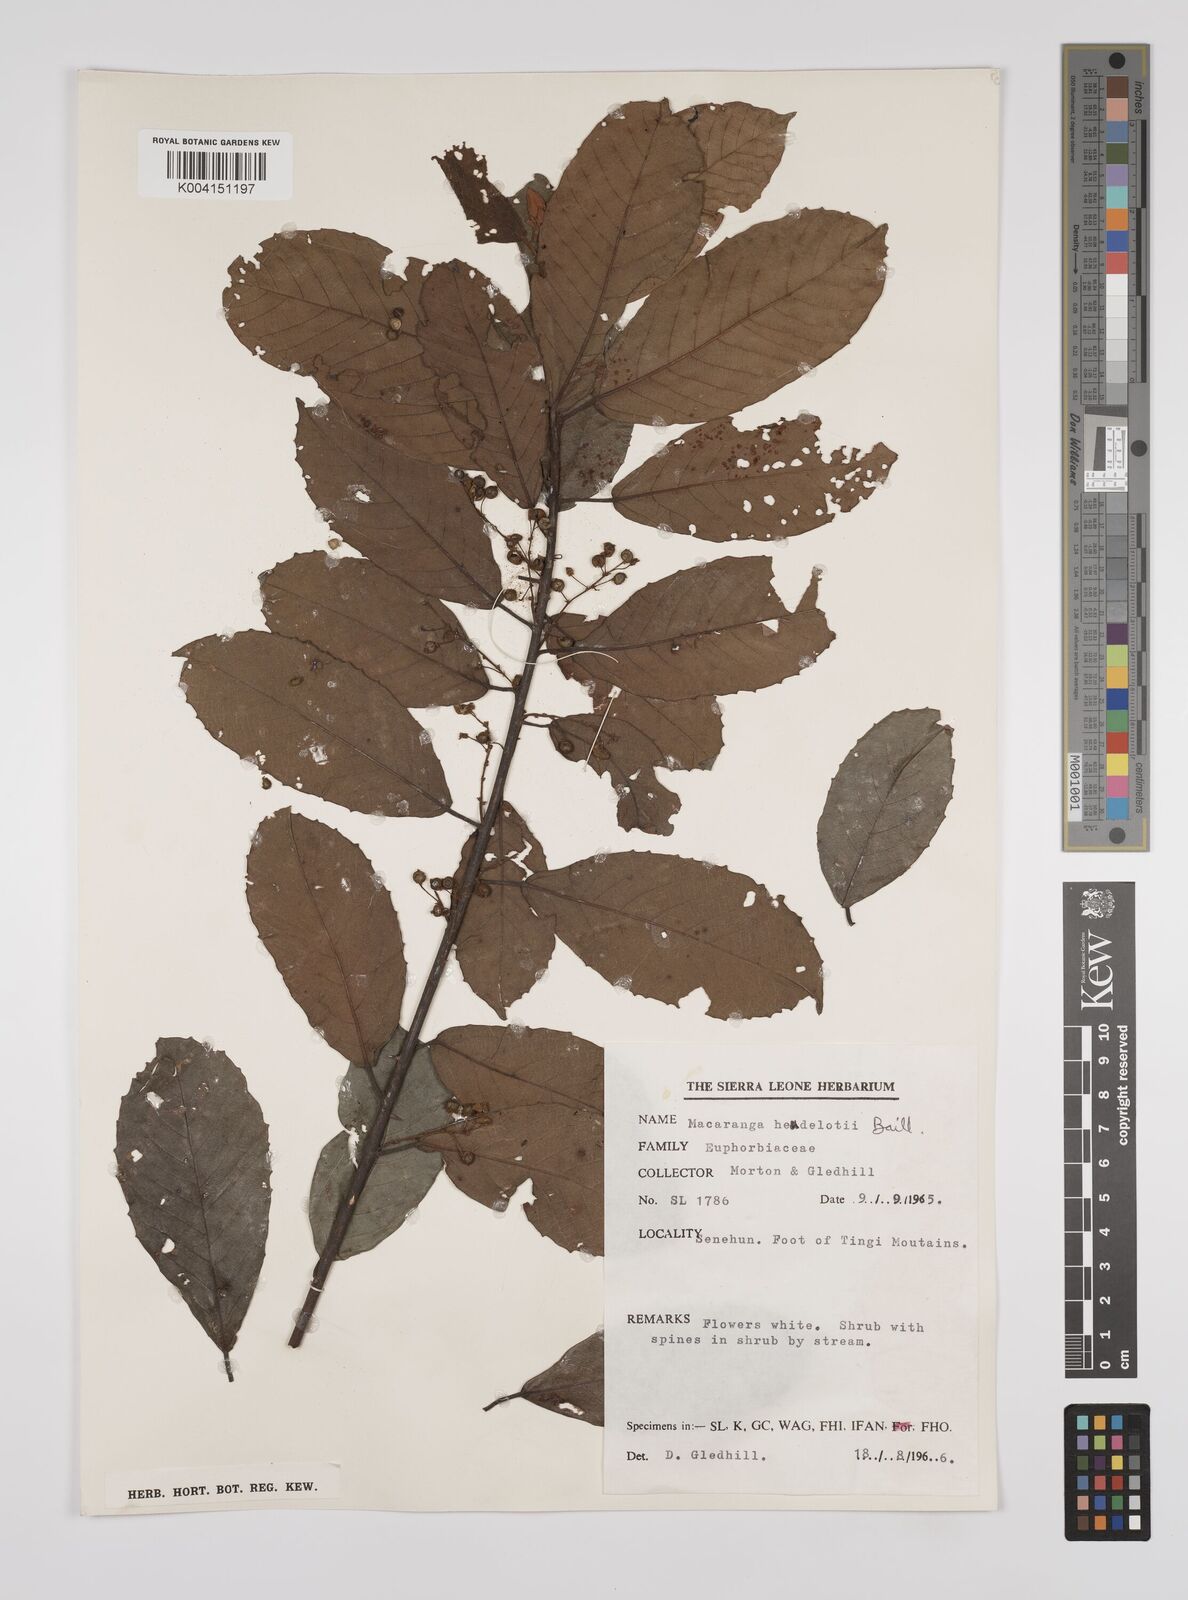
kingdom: Plantae
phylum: Tracheophyta
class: Magnoliopsida
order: Malpighiales
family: Euphorbiaceae
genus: Macaranga
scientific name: Macaranga heudelotii
